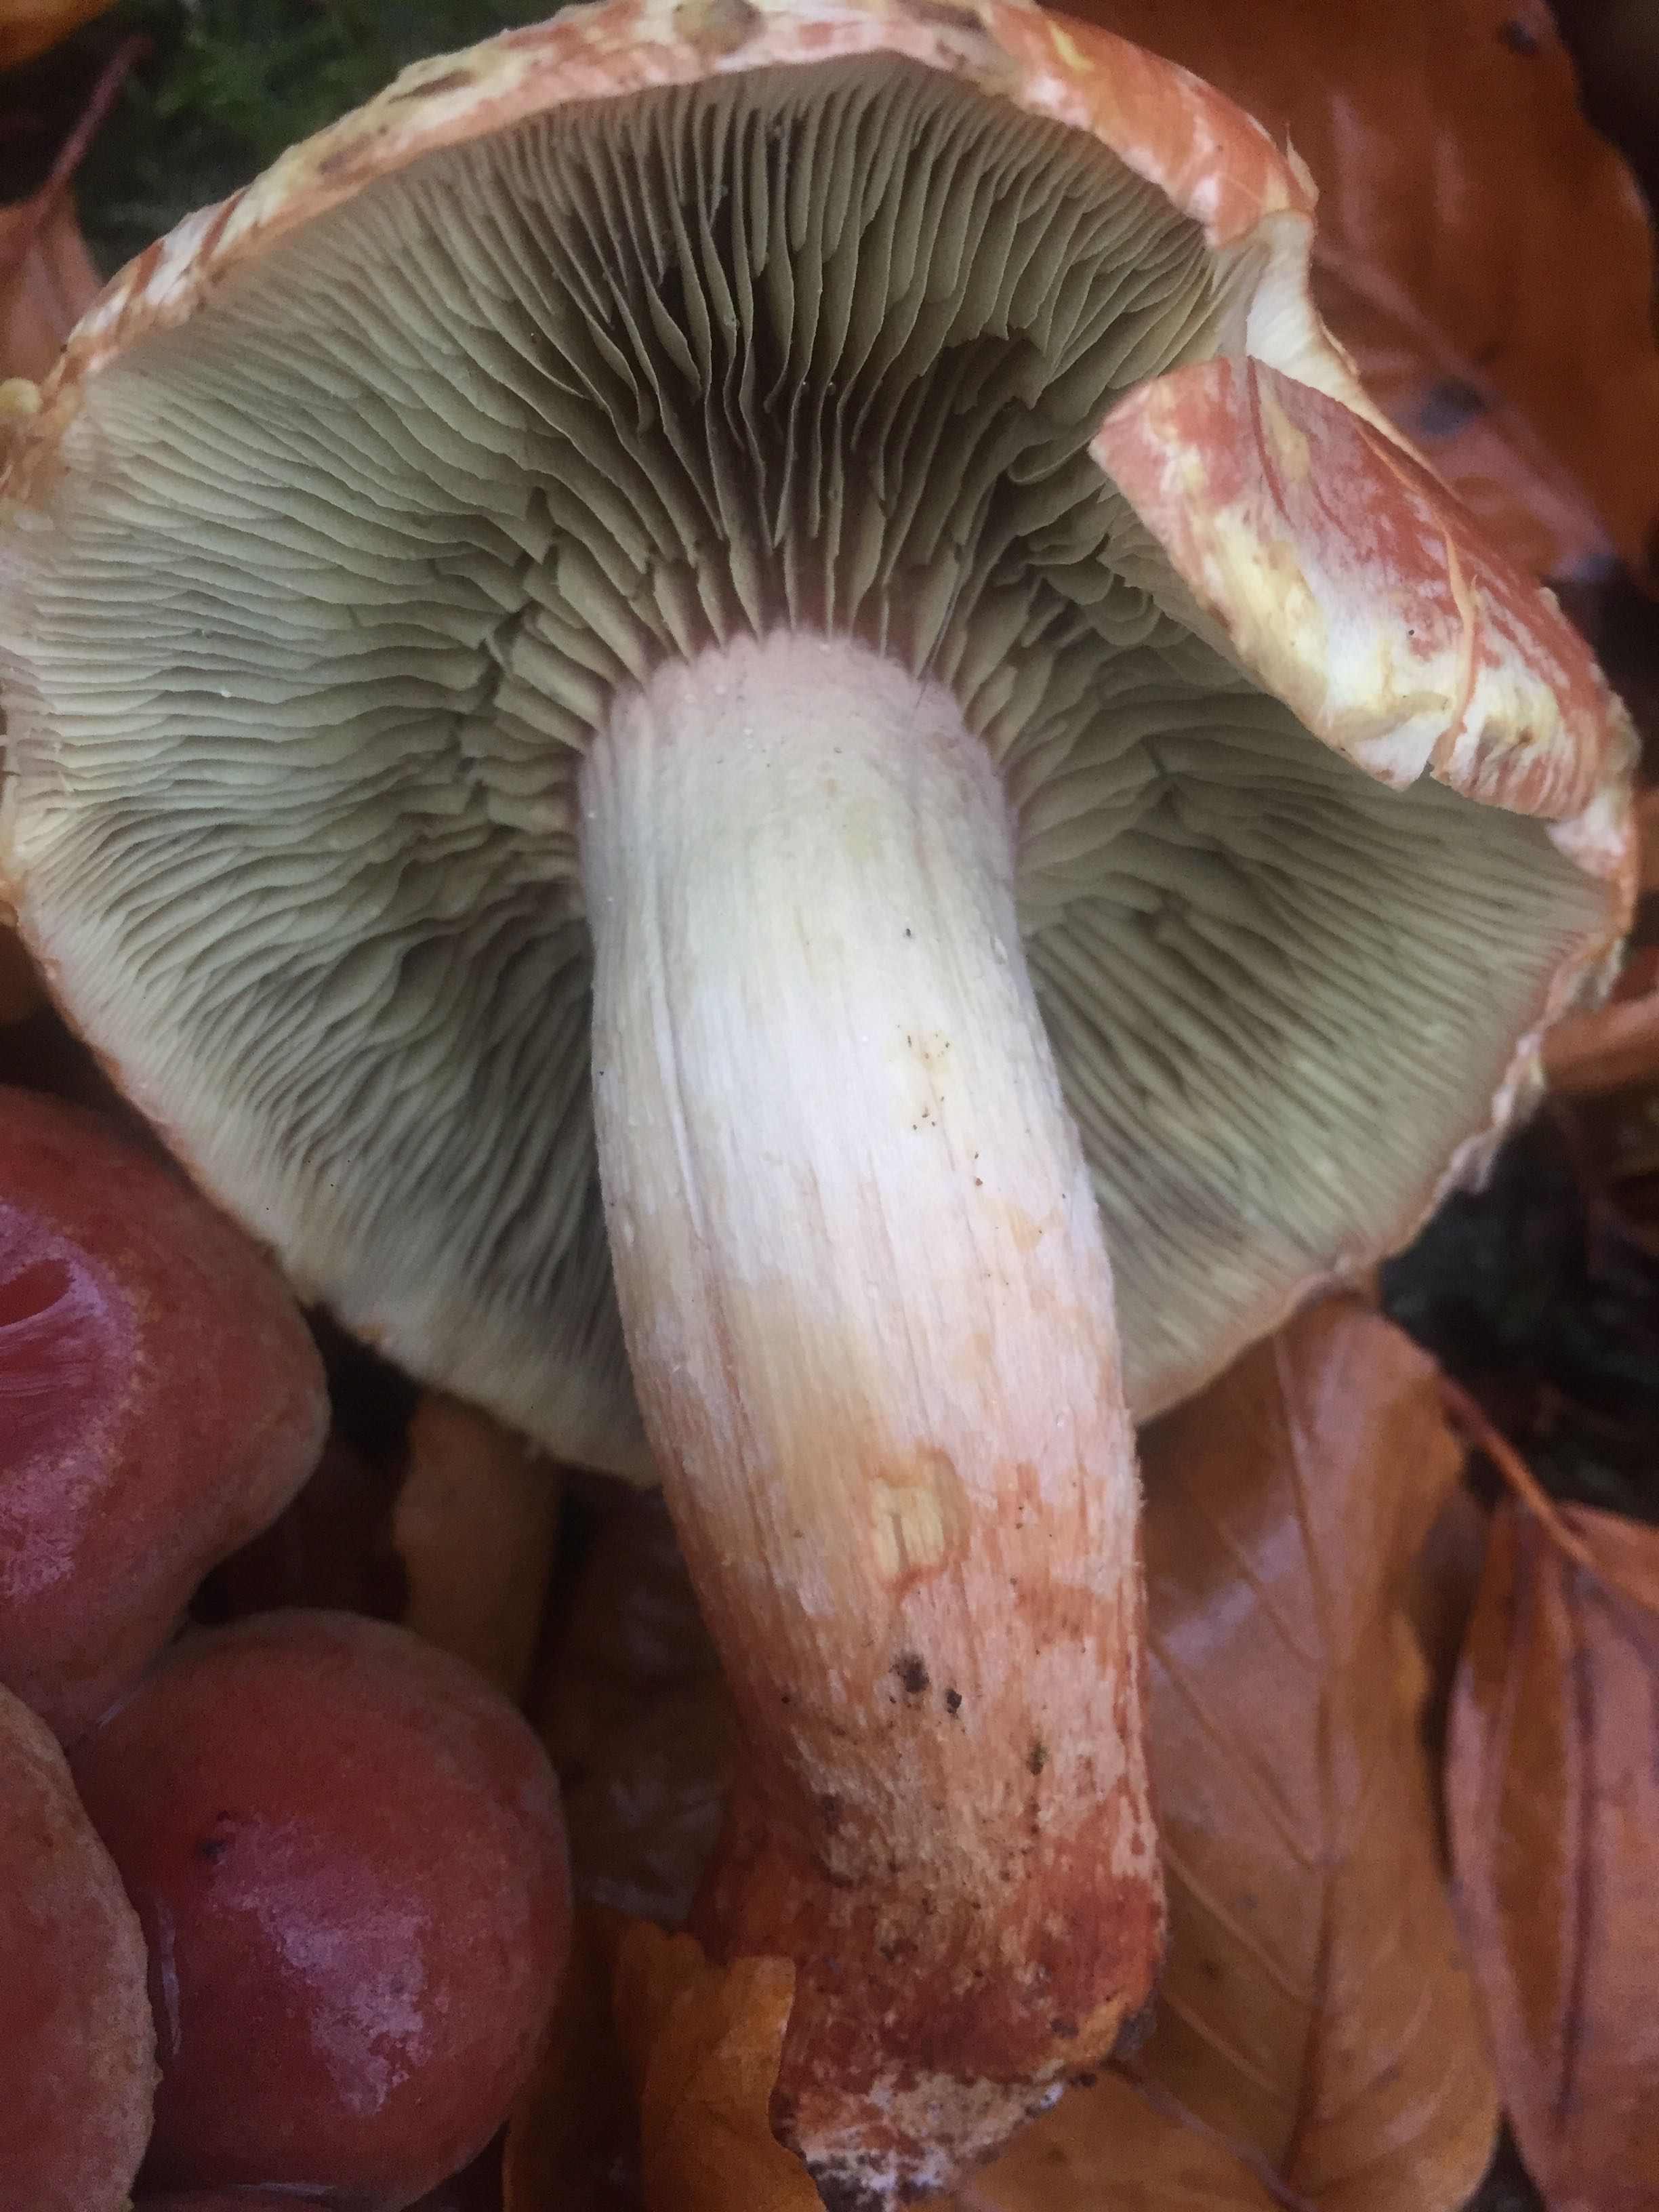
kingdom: Fungi
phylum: Basidiomycota
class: Agaricomycetes
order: Agaricales
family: Strophariaceae
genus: Hypholoma
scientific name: Hypholoma lateritium
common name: teglrød svovlhat
